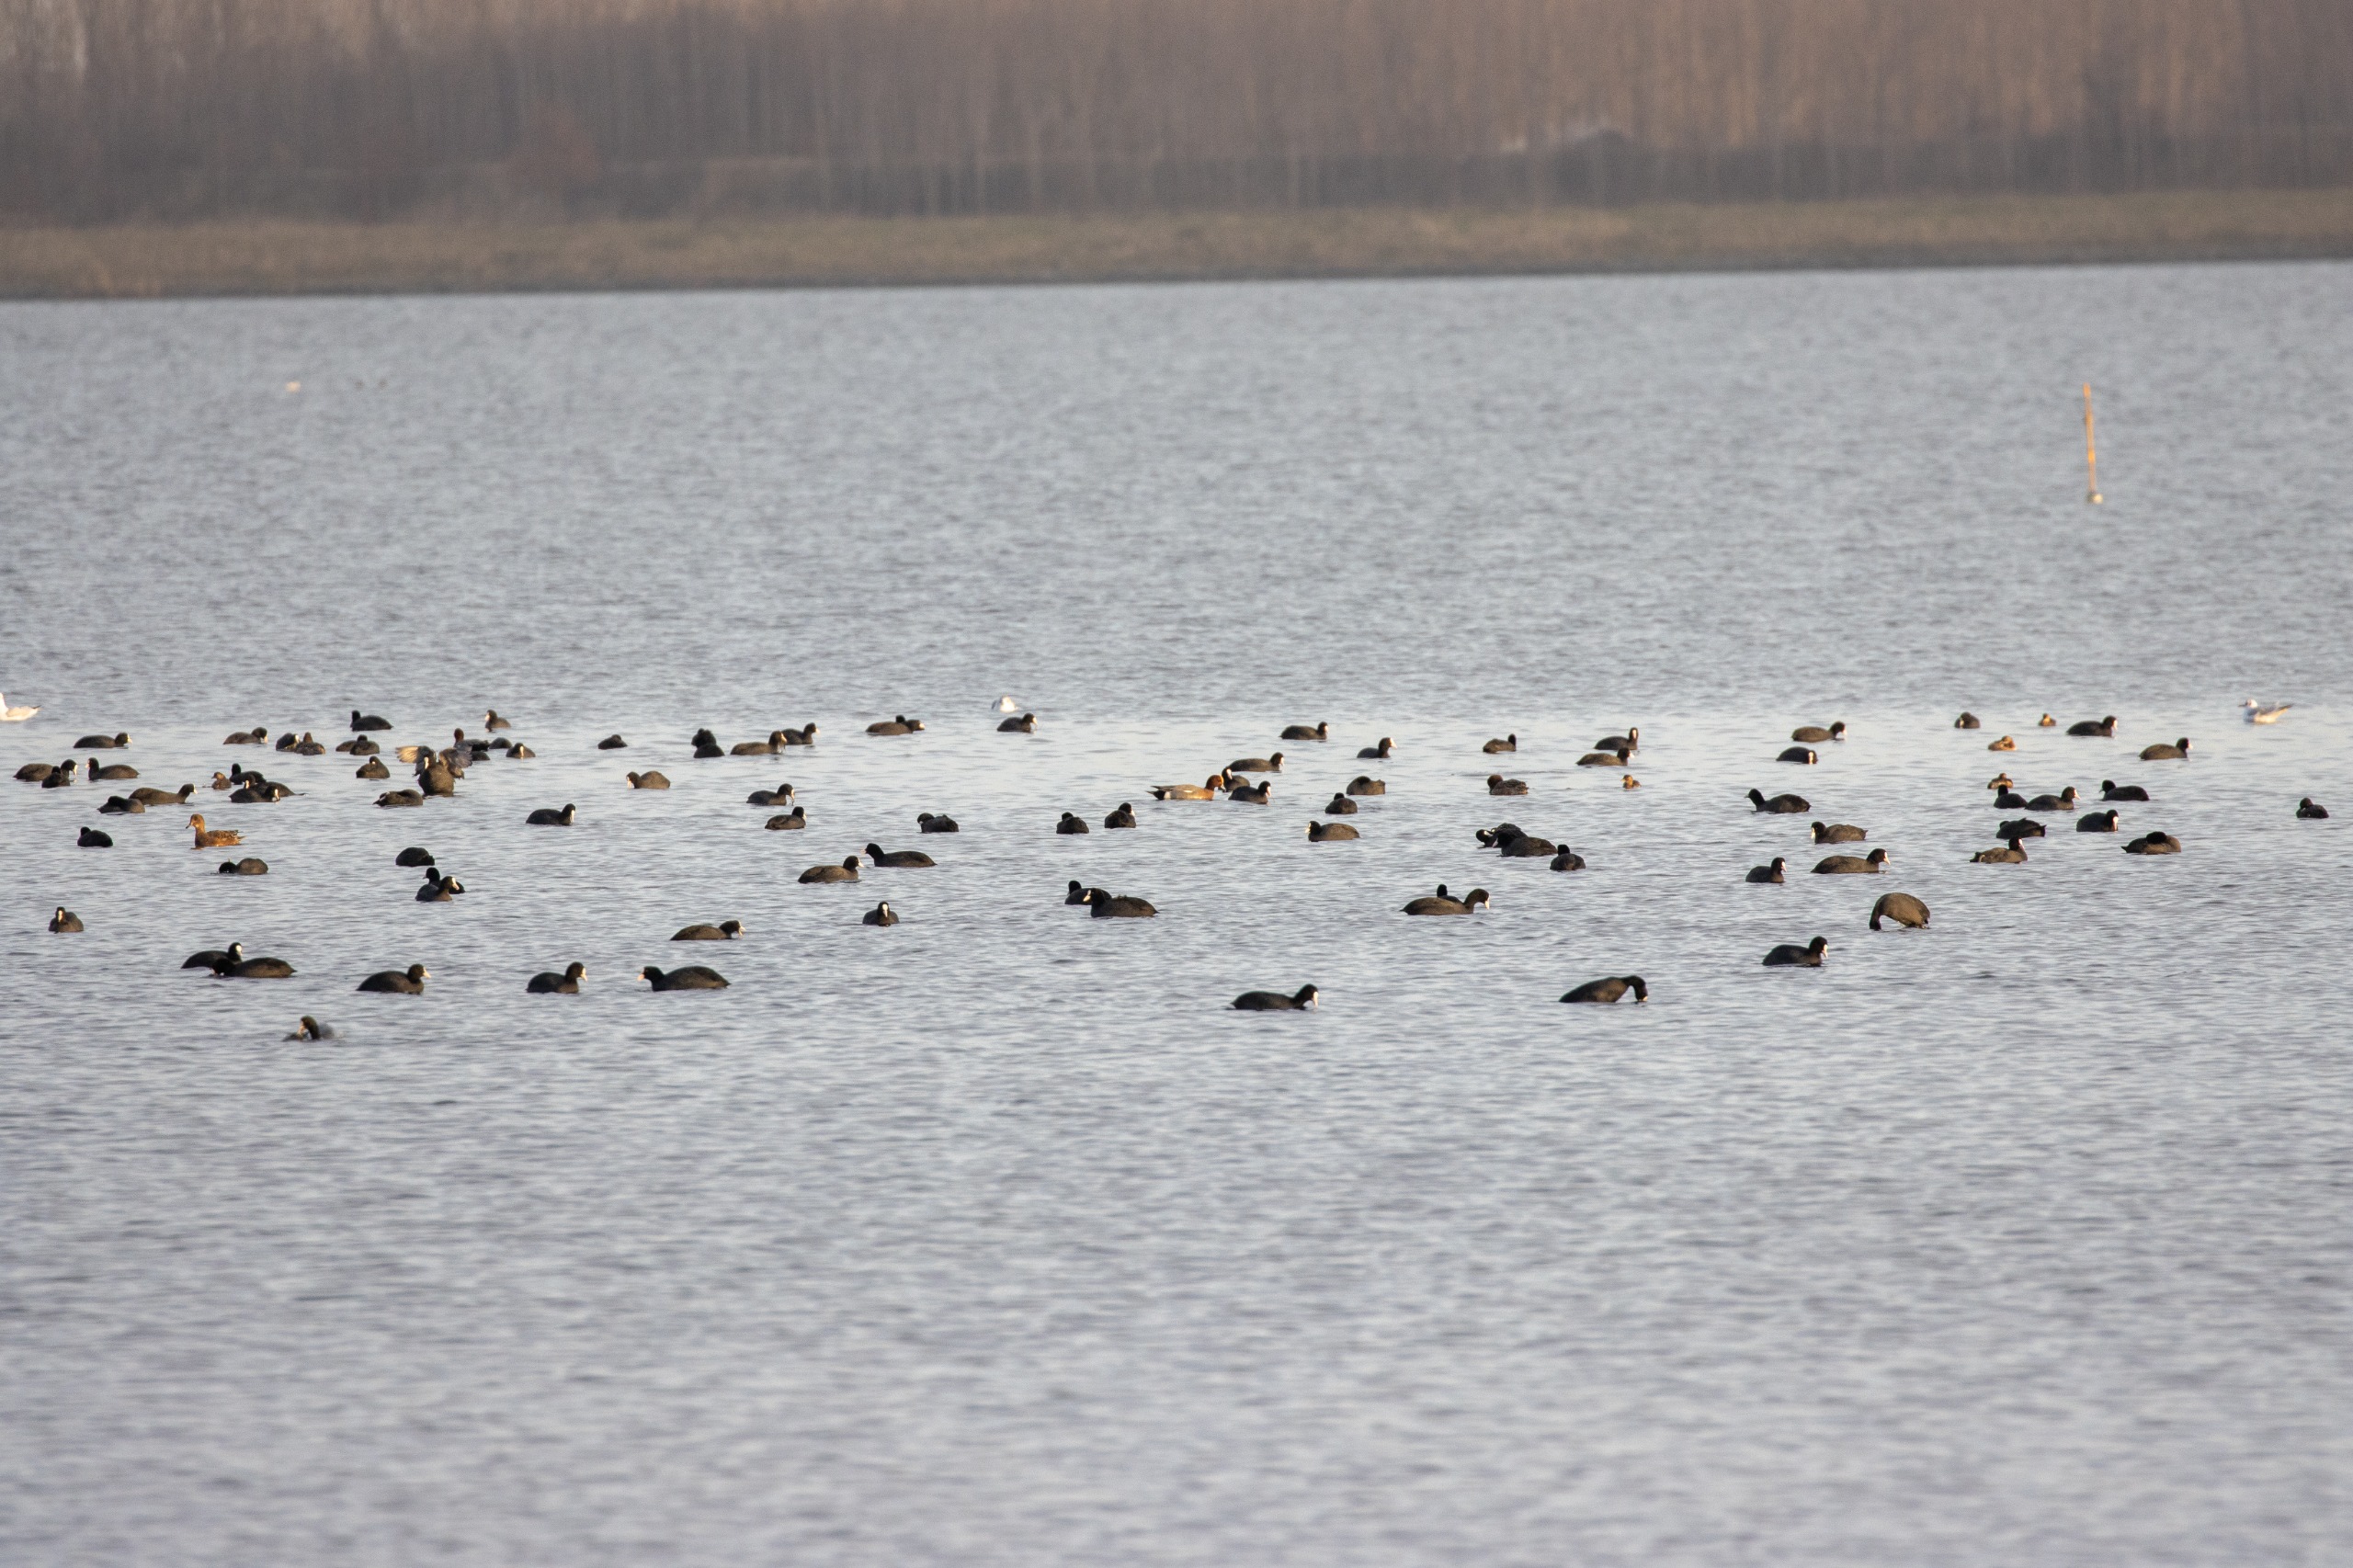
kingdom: Animalia
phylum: Chordata
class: Aves
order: Podicipediformes
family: Podicipedidae
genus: Tachybaptus
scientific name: Tachybaptus ruficollis
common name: Lille lappedykker
